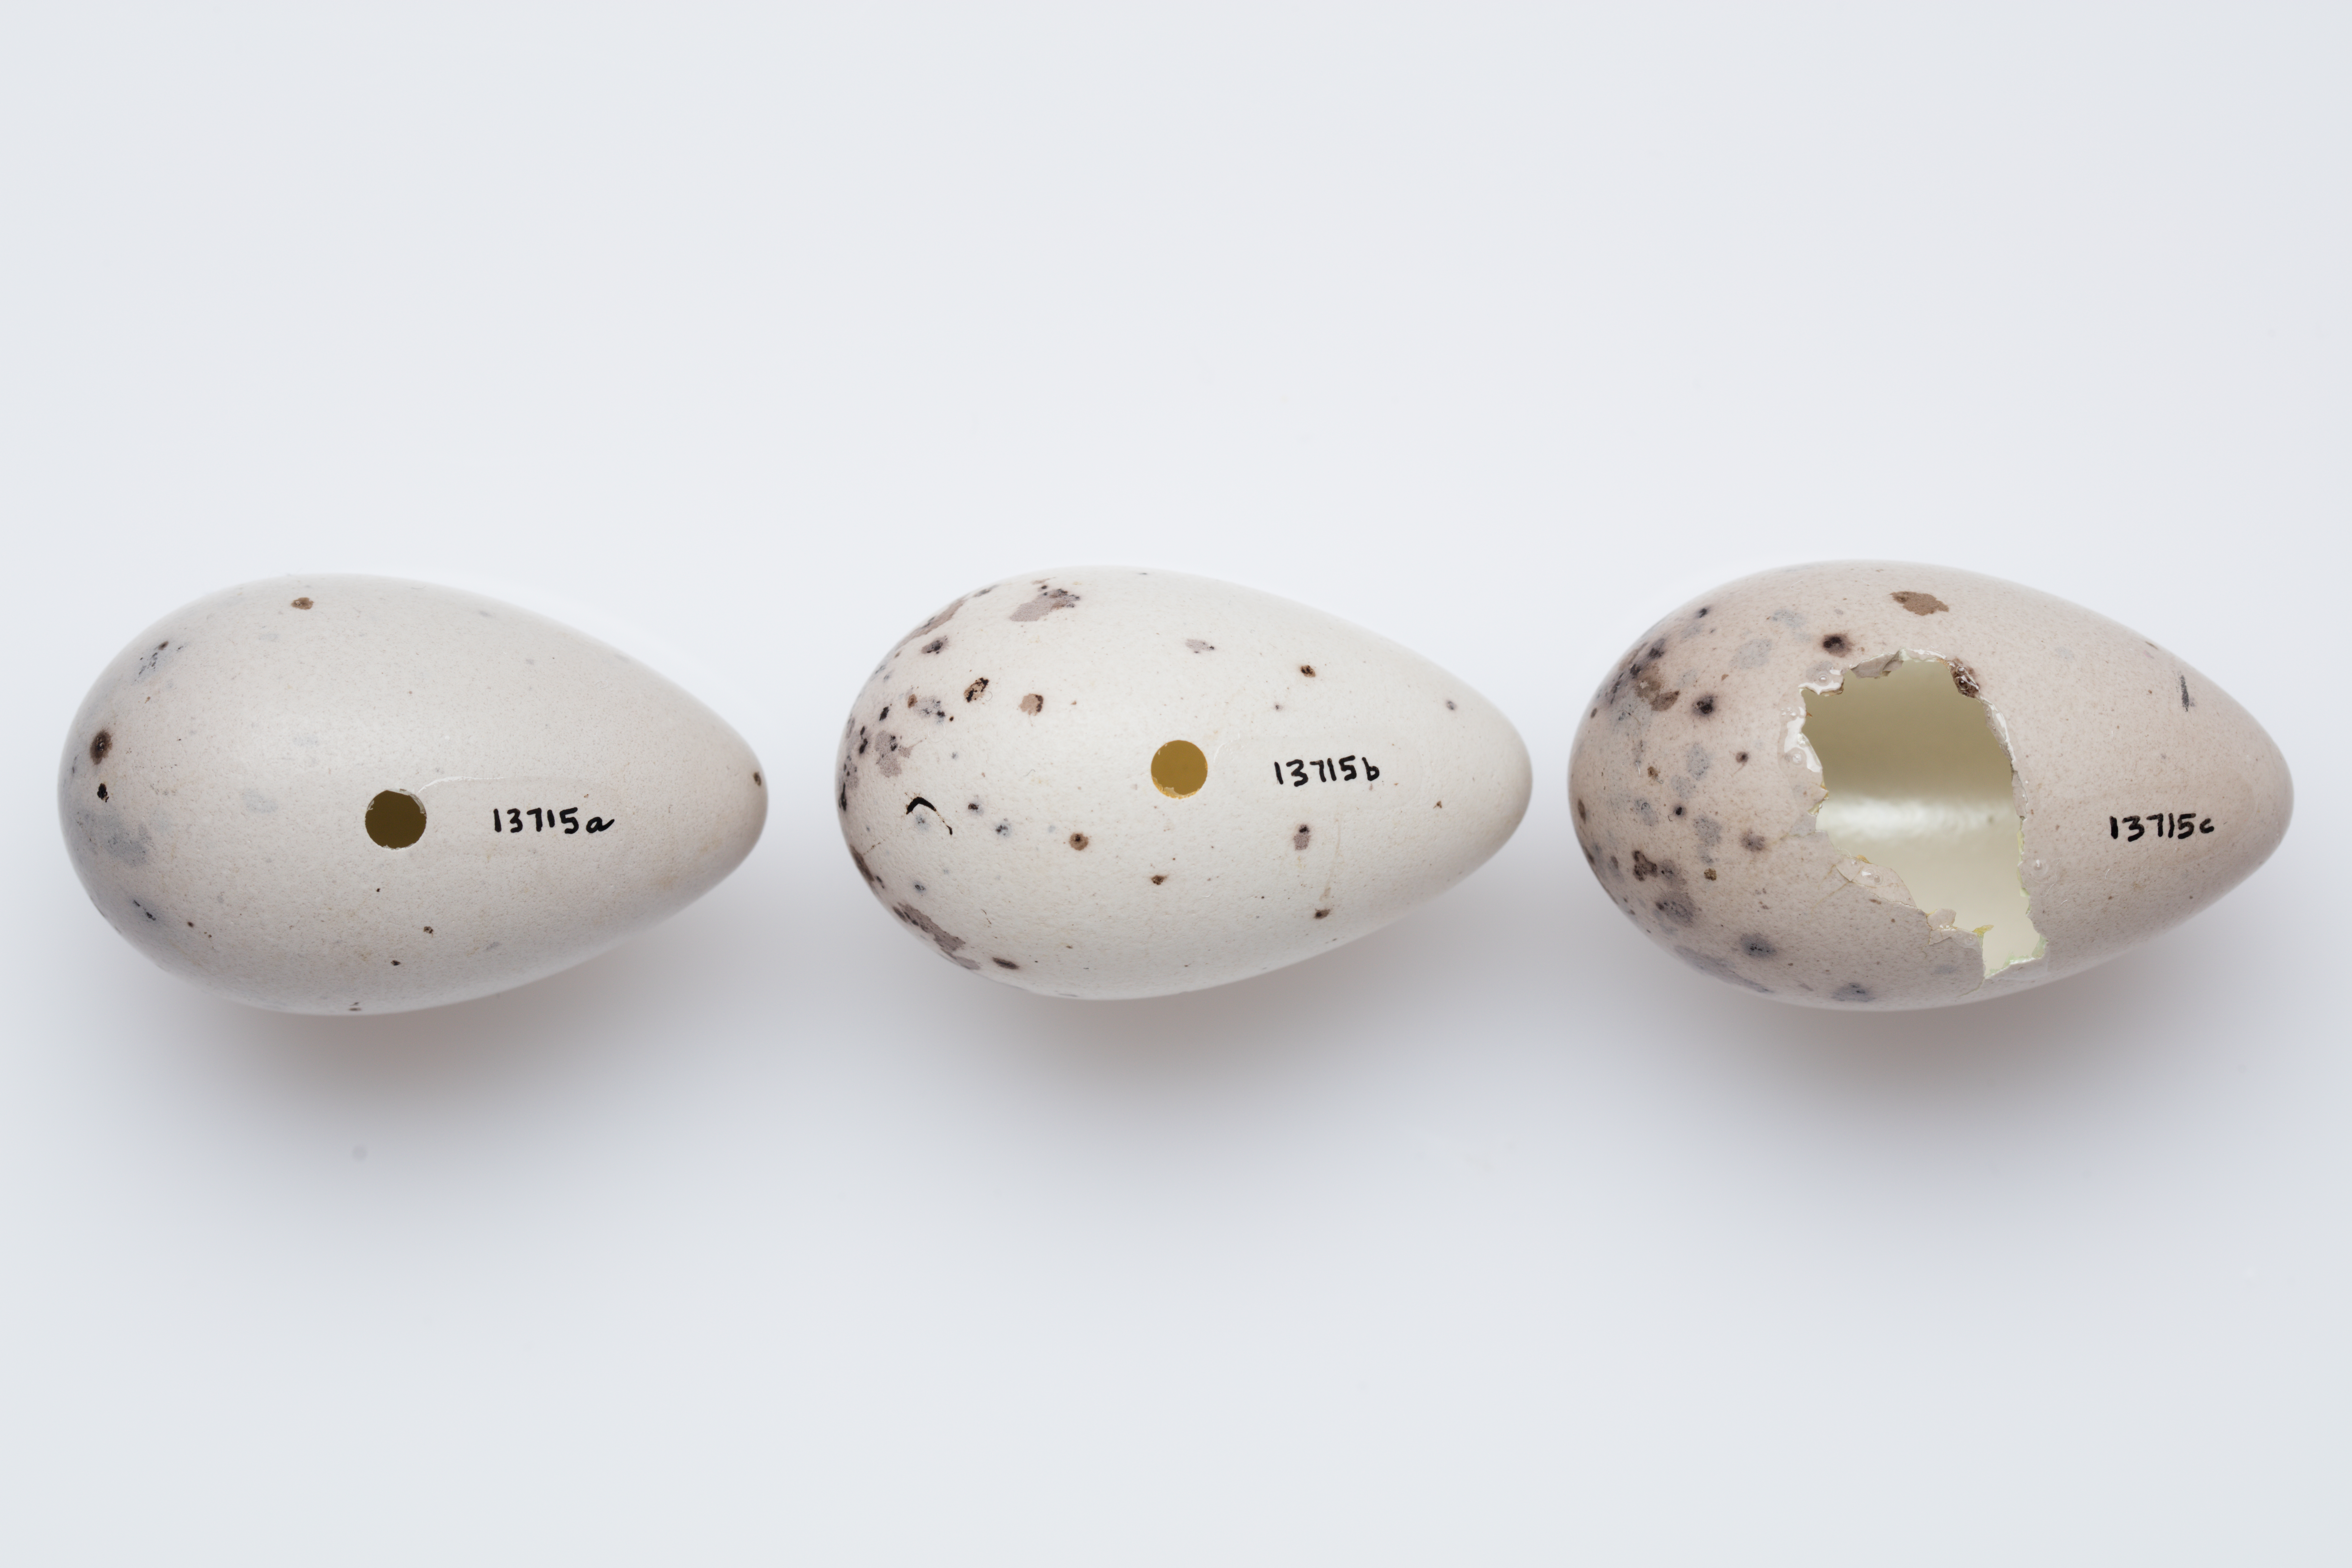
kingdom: Animalia
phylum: Chordata
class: Aves
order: Passeriformes
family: Callaeatidae
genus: Callaeas
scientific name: Callaeas cinereus
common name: South island kokako
